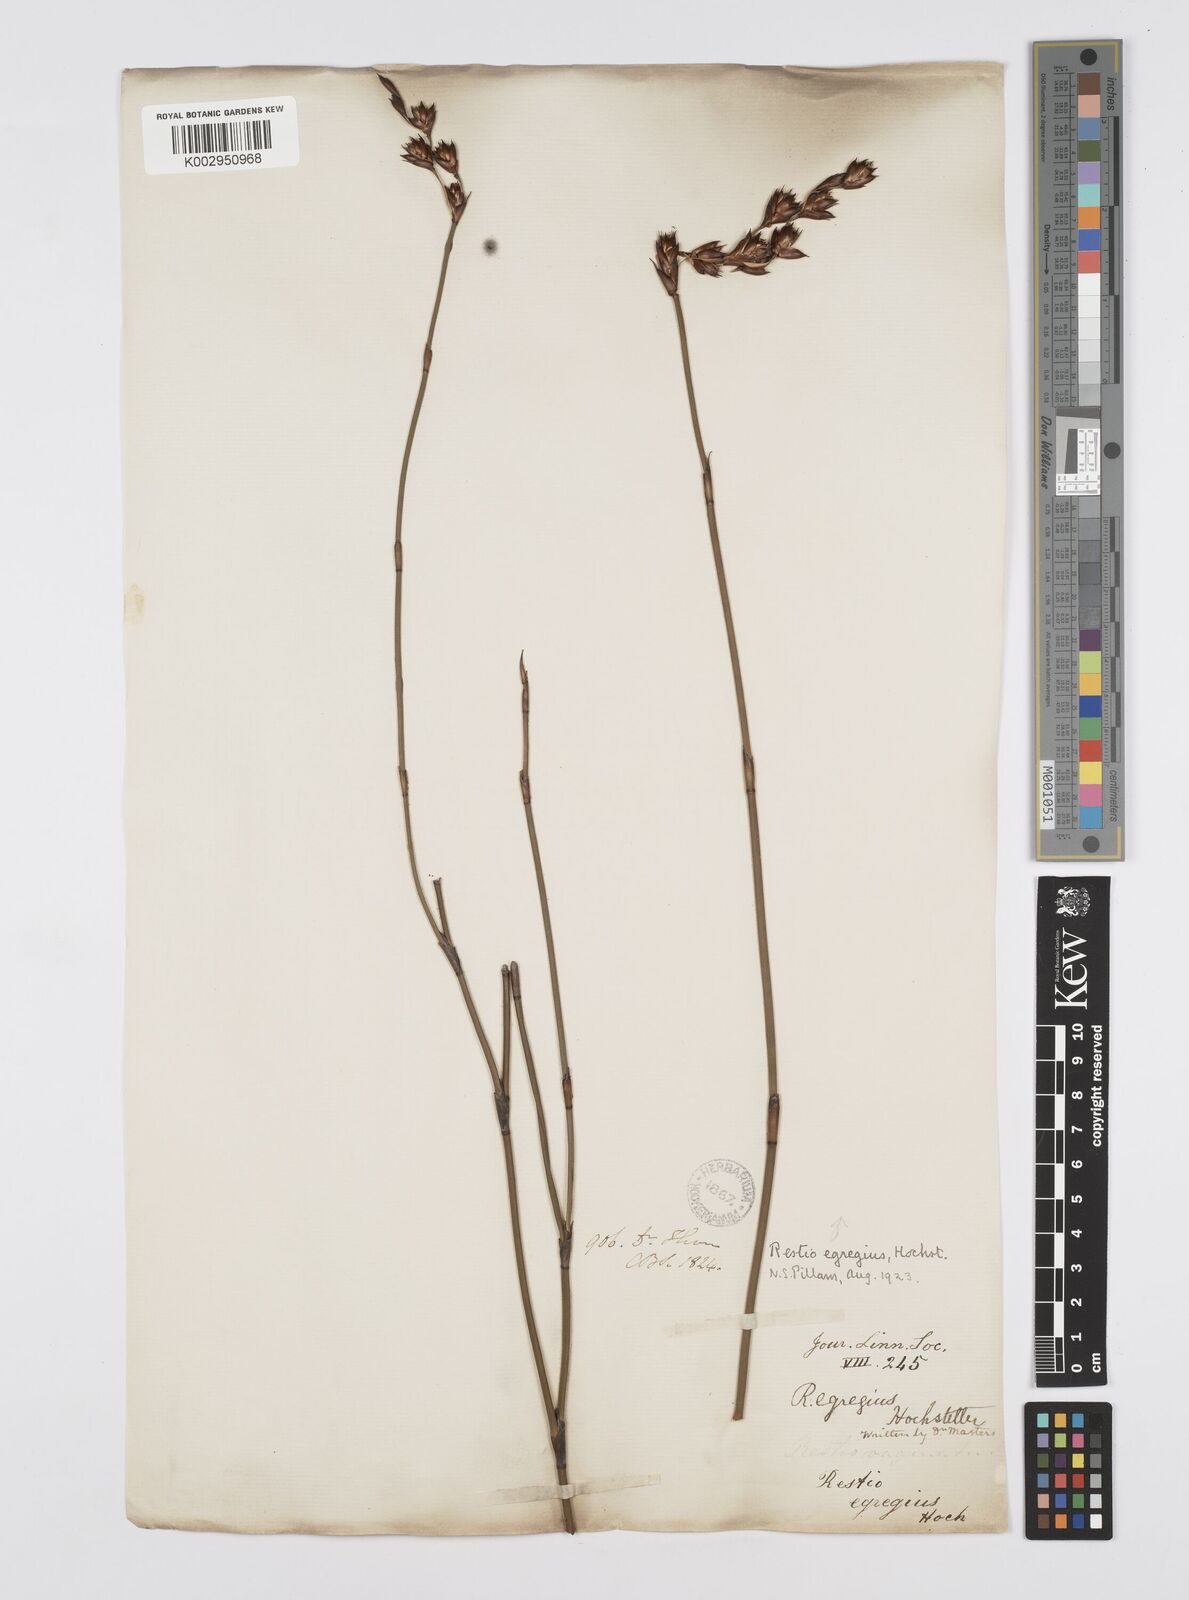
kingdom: Plantae
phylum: Tracheophyta
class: Liliopsida
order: Poales
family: Restionaceae
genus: Restio
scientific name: Restio egregius
